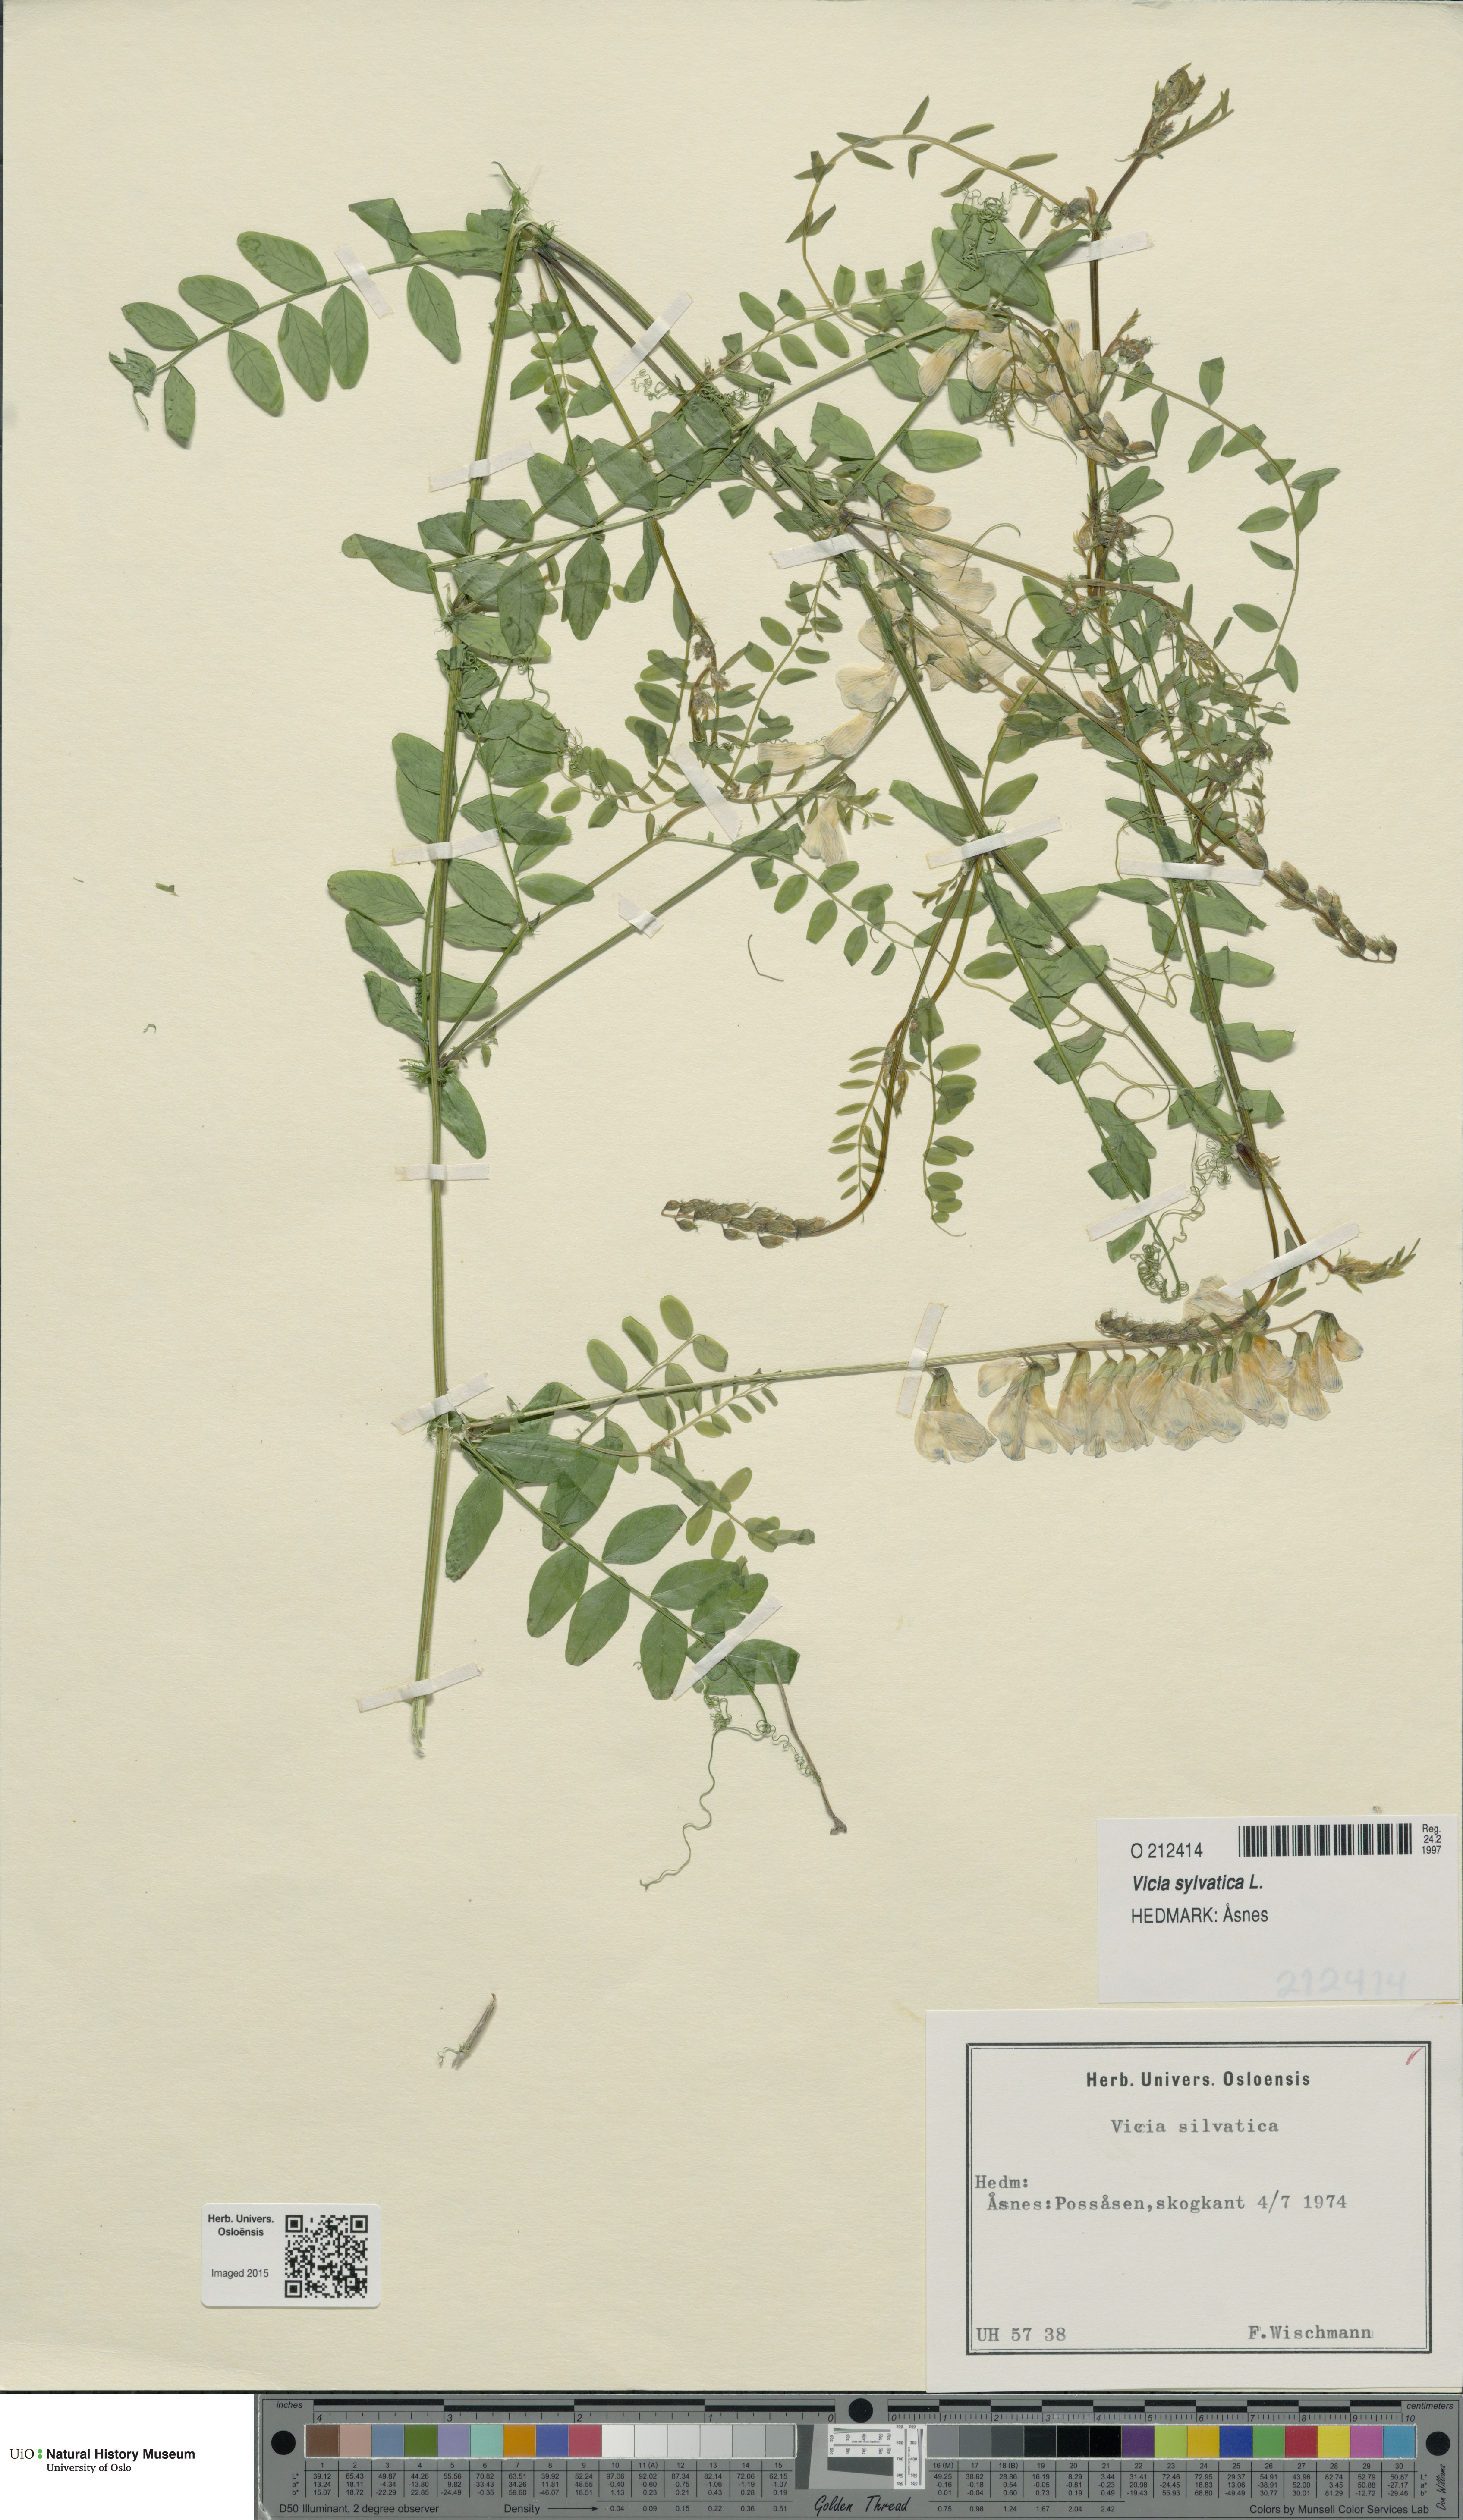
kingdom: Plantae
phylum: Tracheophyta
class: Magnoliopsida
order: Fabales
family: Fabaceae
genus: Vicia
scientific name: Vicia sylvatica
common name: Wood vetch
